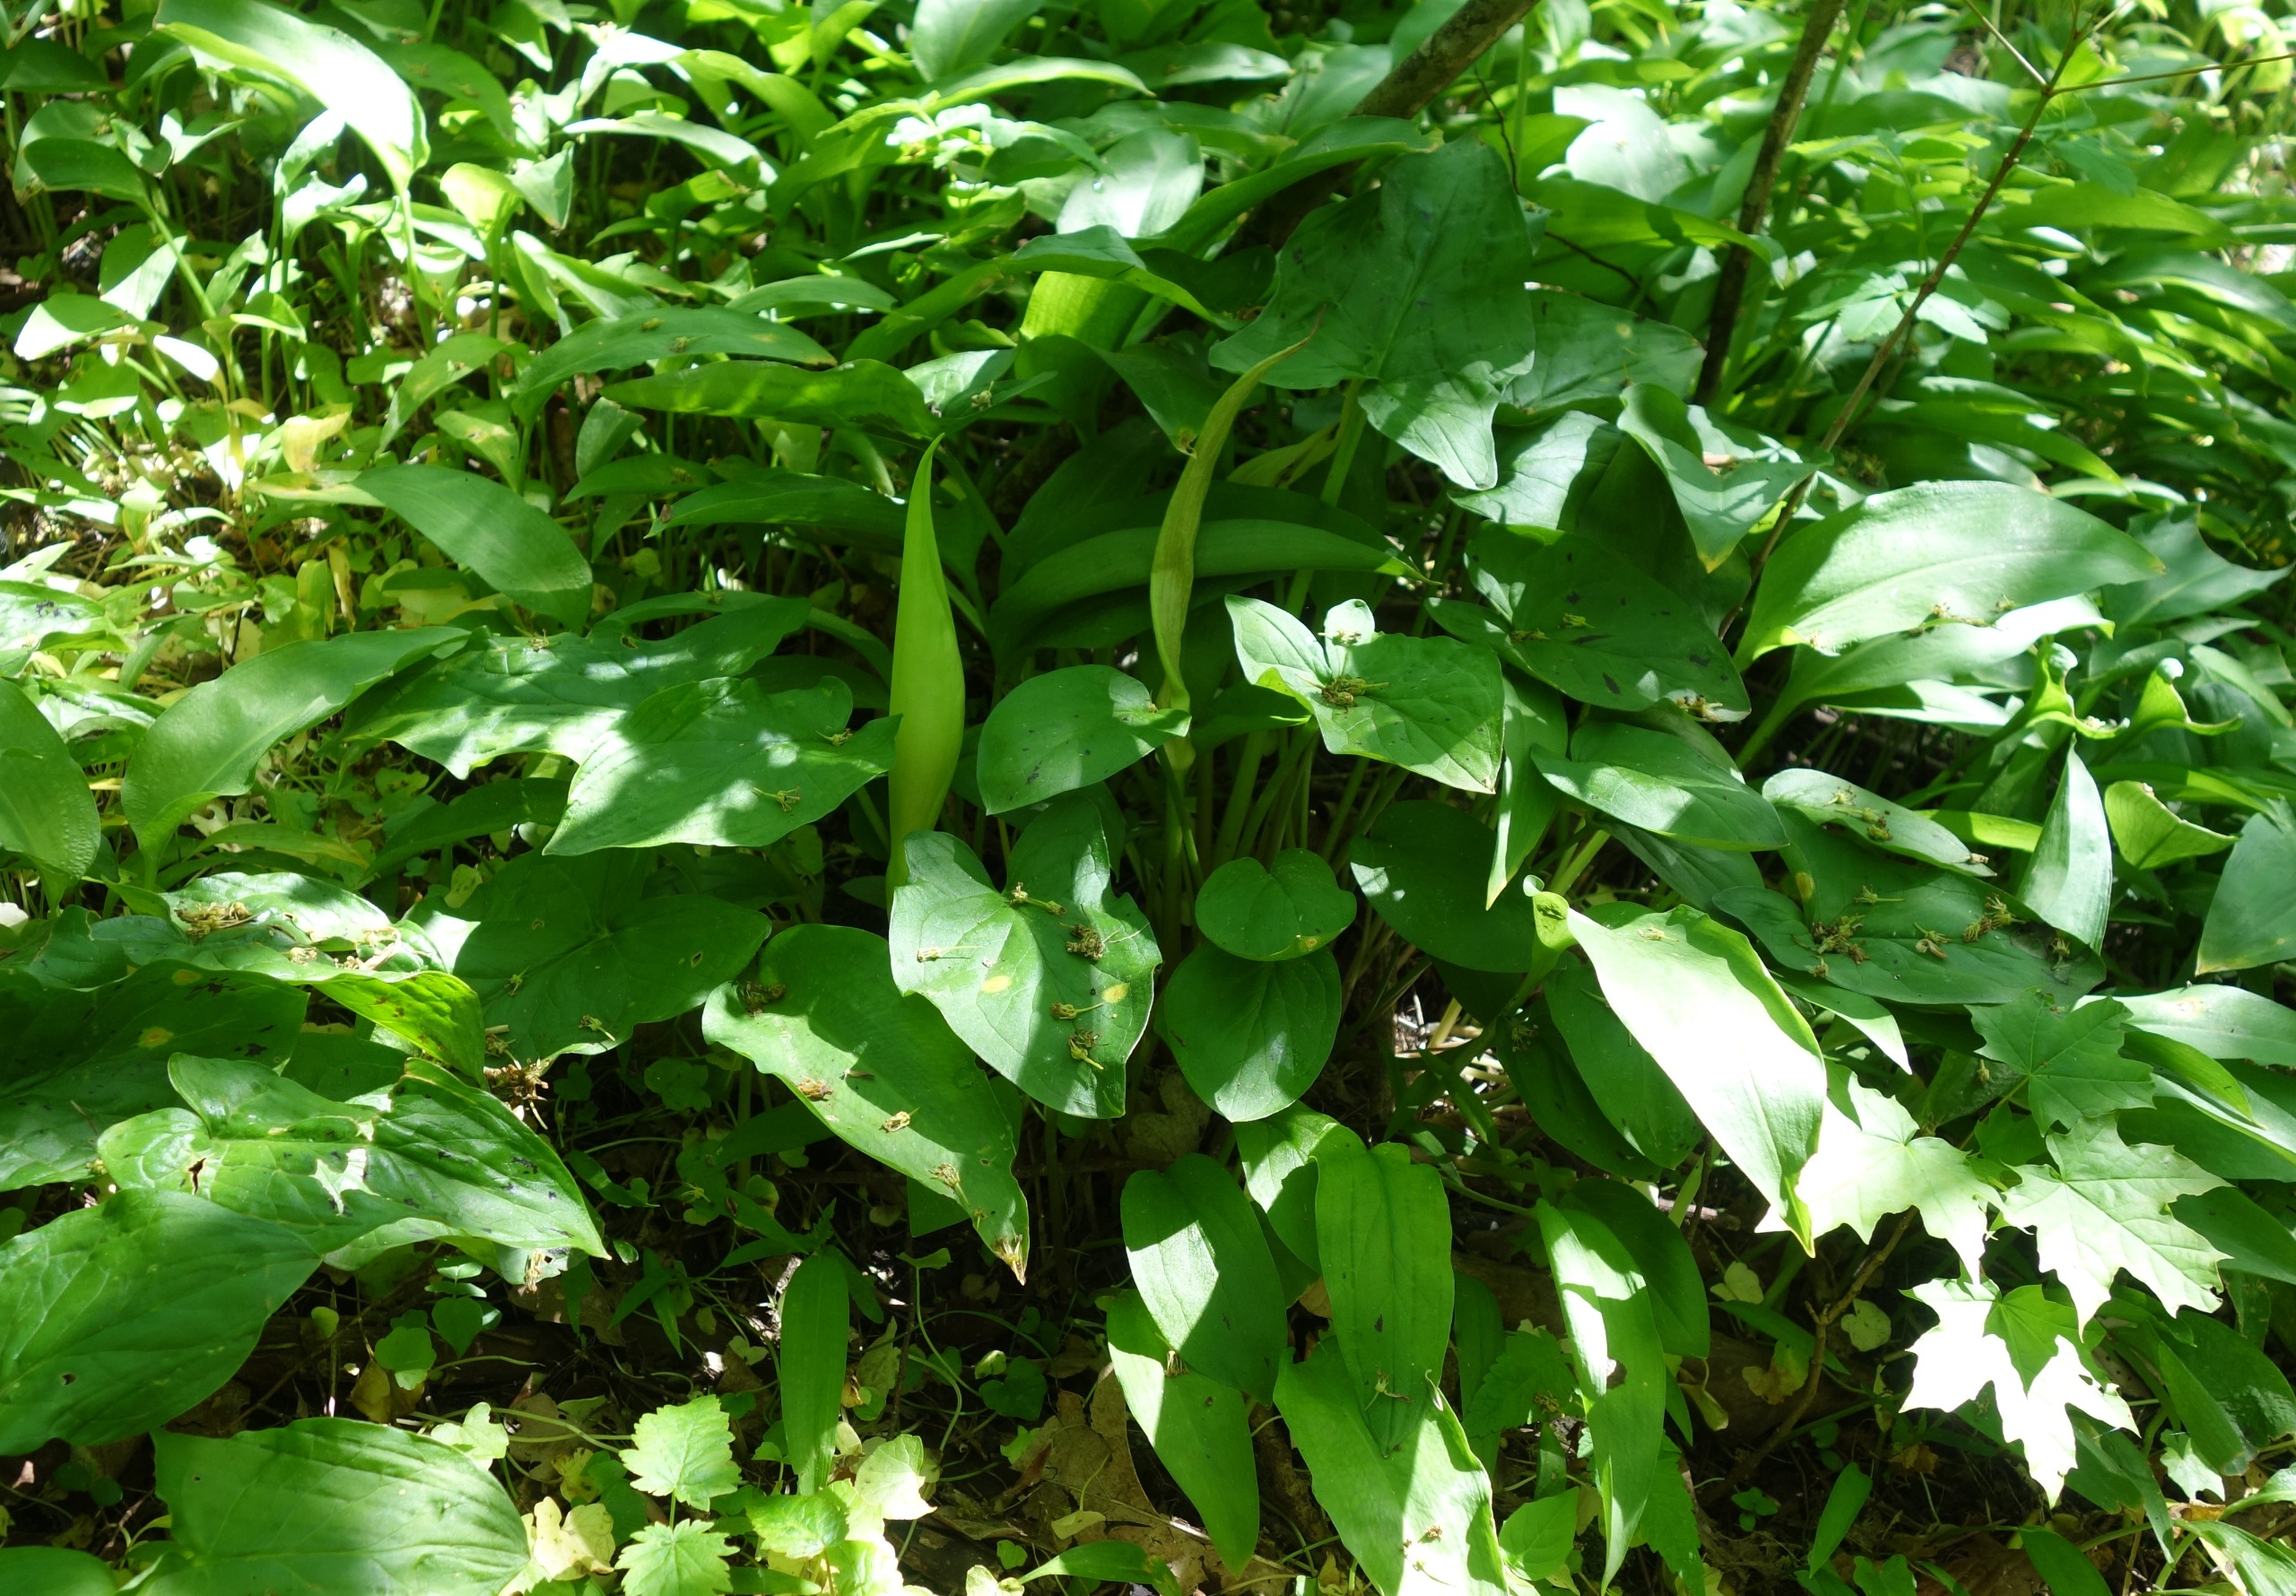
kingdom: Plantae
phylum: Tracheophyta
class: Liliopsida
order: Alismatales
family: Araceae
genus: Arum
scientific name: Arum maculatum
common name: Plettet arum
